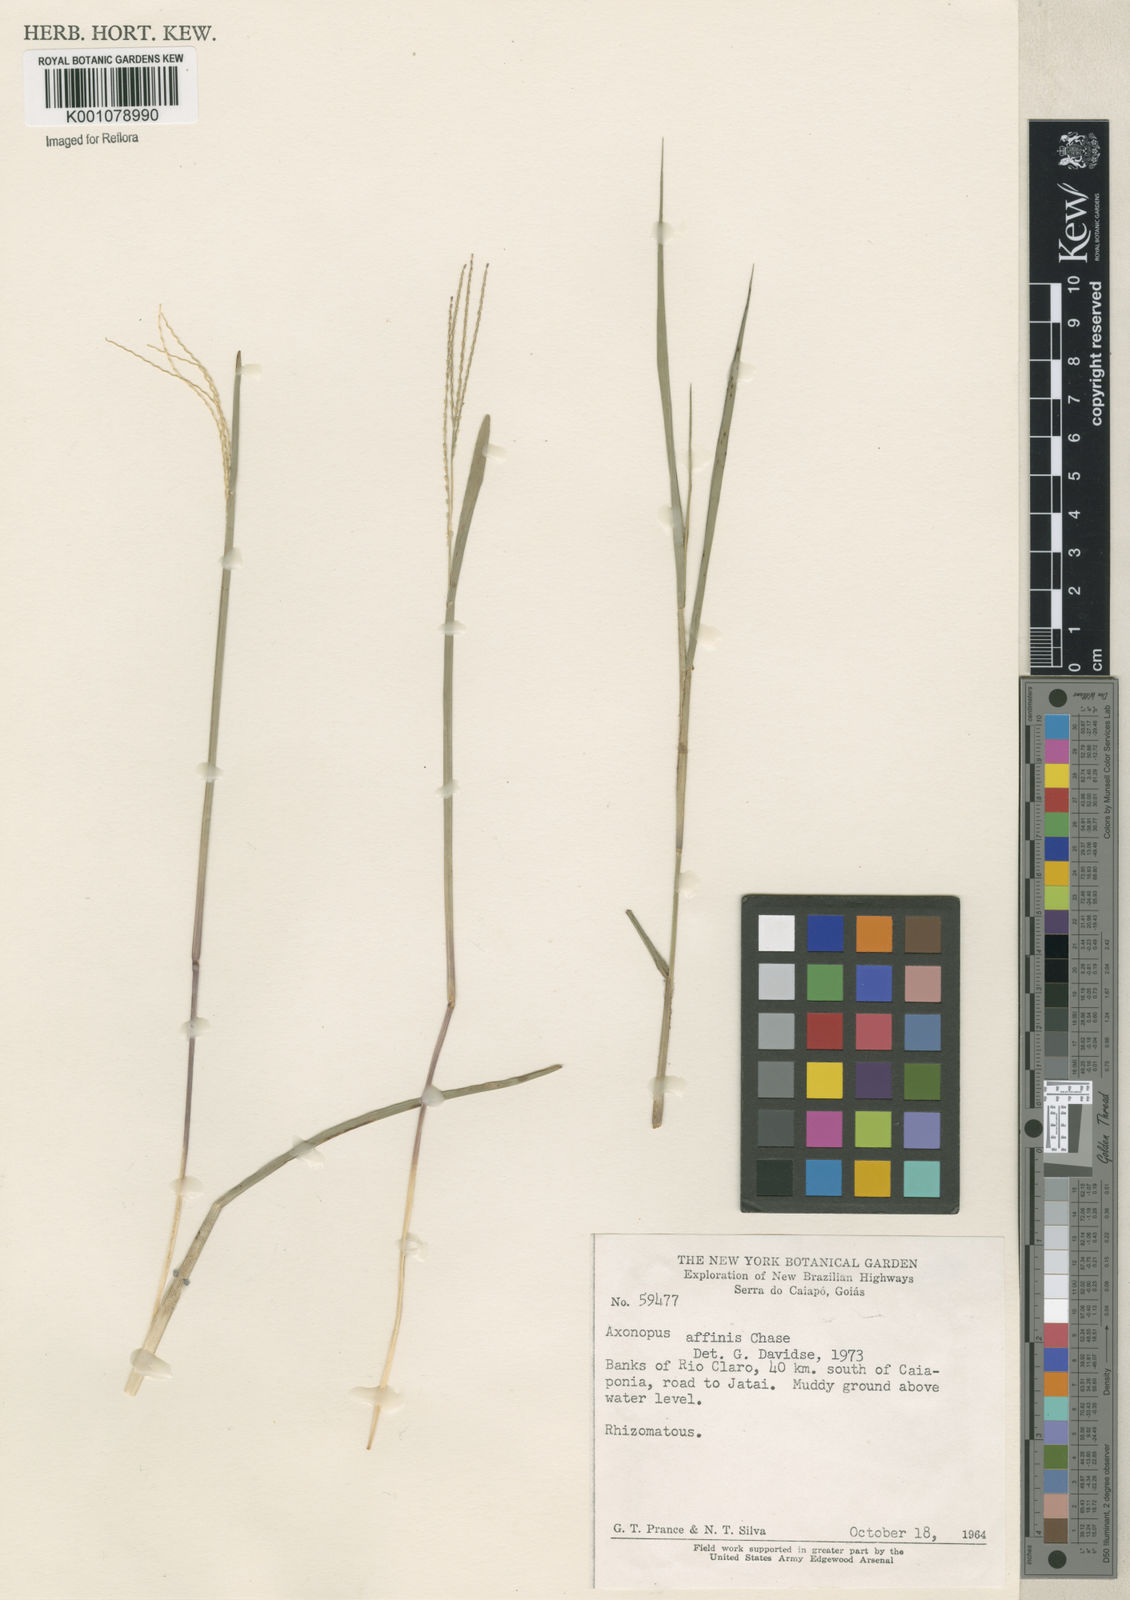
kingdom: Plantae
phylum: Tracheophyta
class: Liliopsida
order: Poales
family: Poaceae
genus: Axonopus
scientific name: Axonopus fissifolius
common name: Common carpetgrass
